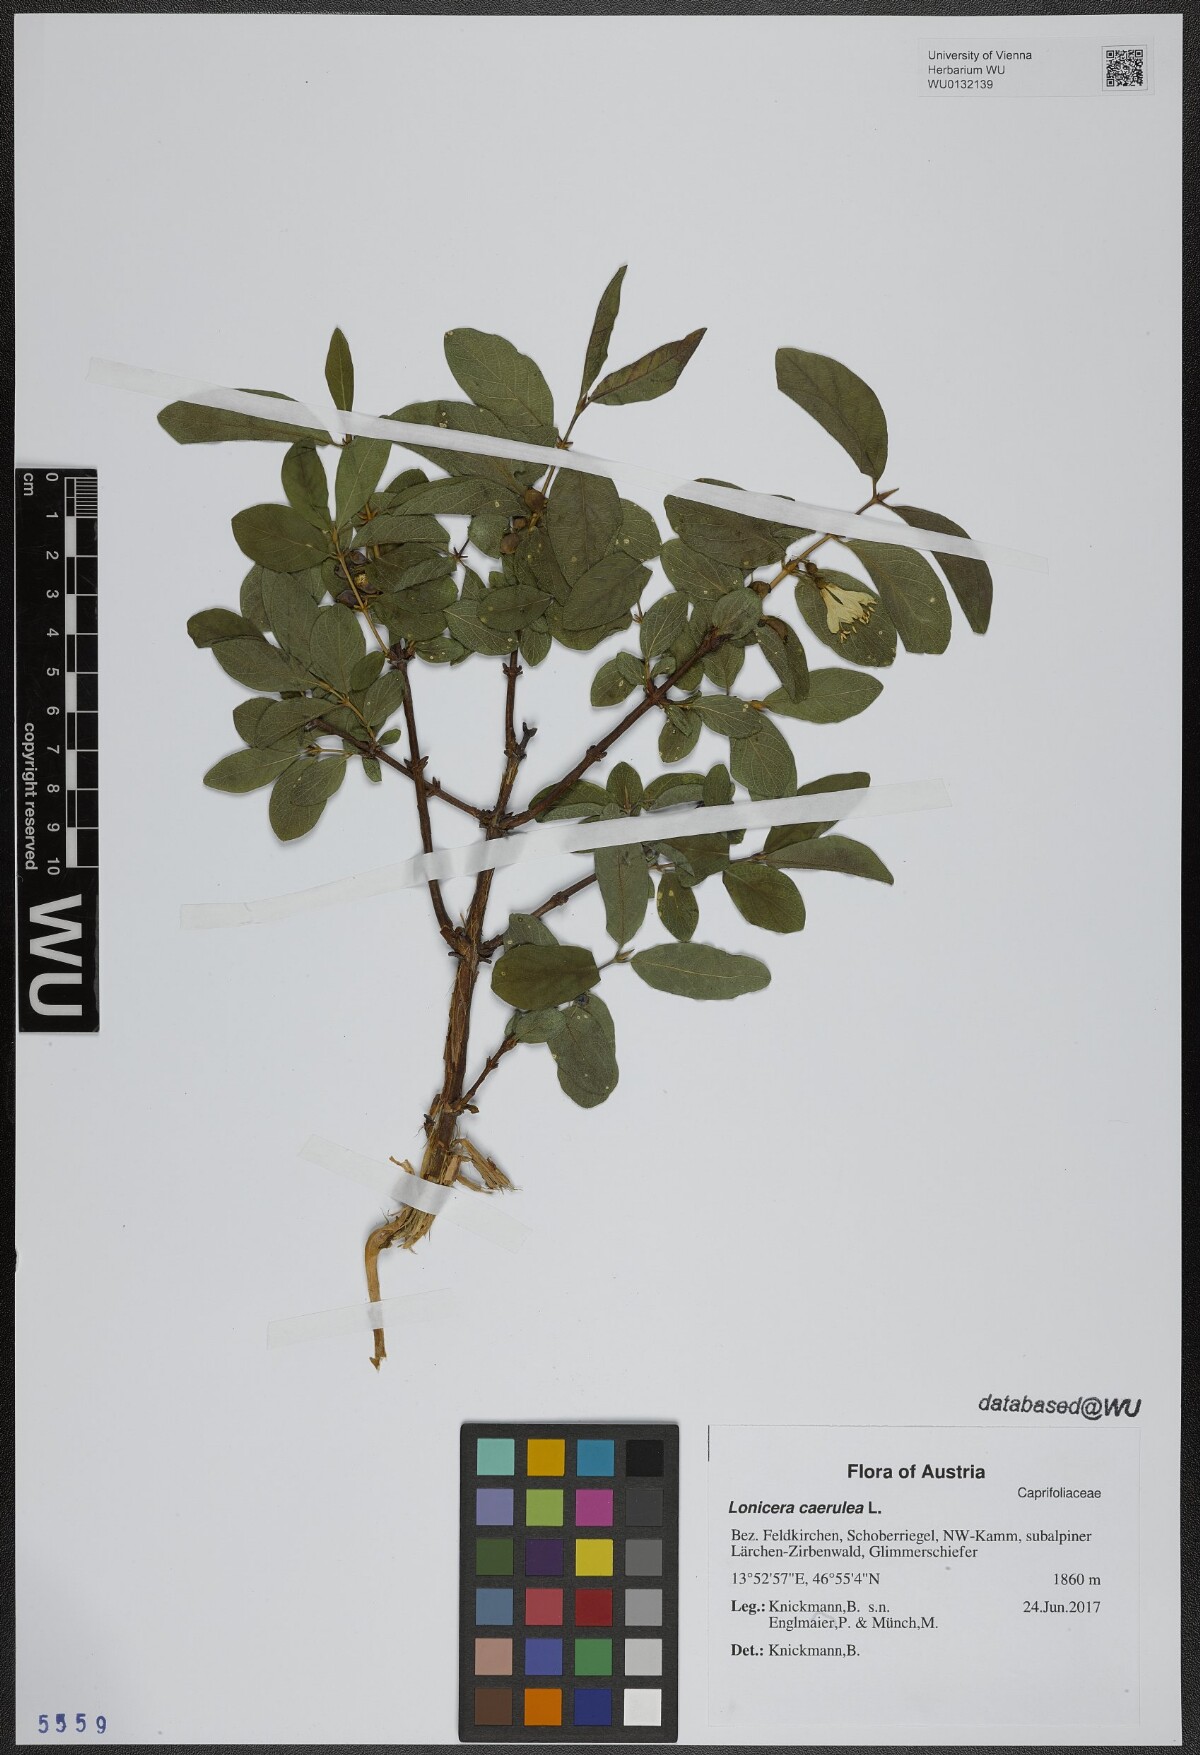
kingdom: Plantae
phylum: Tracheophyta
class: Magnoliopsida
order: Dipsacales
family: Caprifoliaceae
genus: Lonicera
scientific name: Lonicera caerulea
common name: Blue honeysuckle
